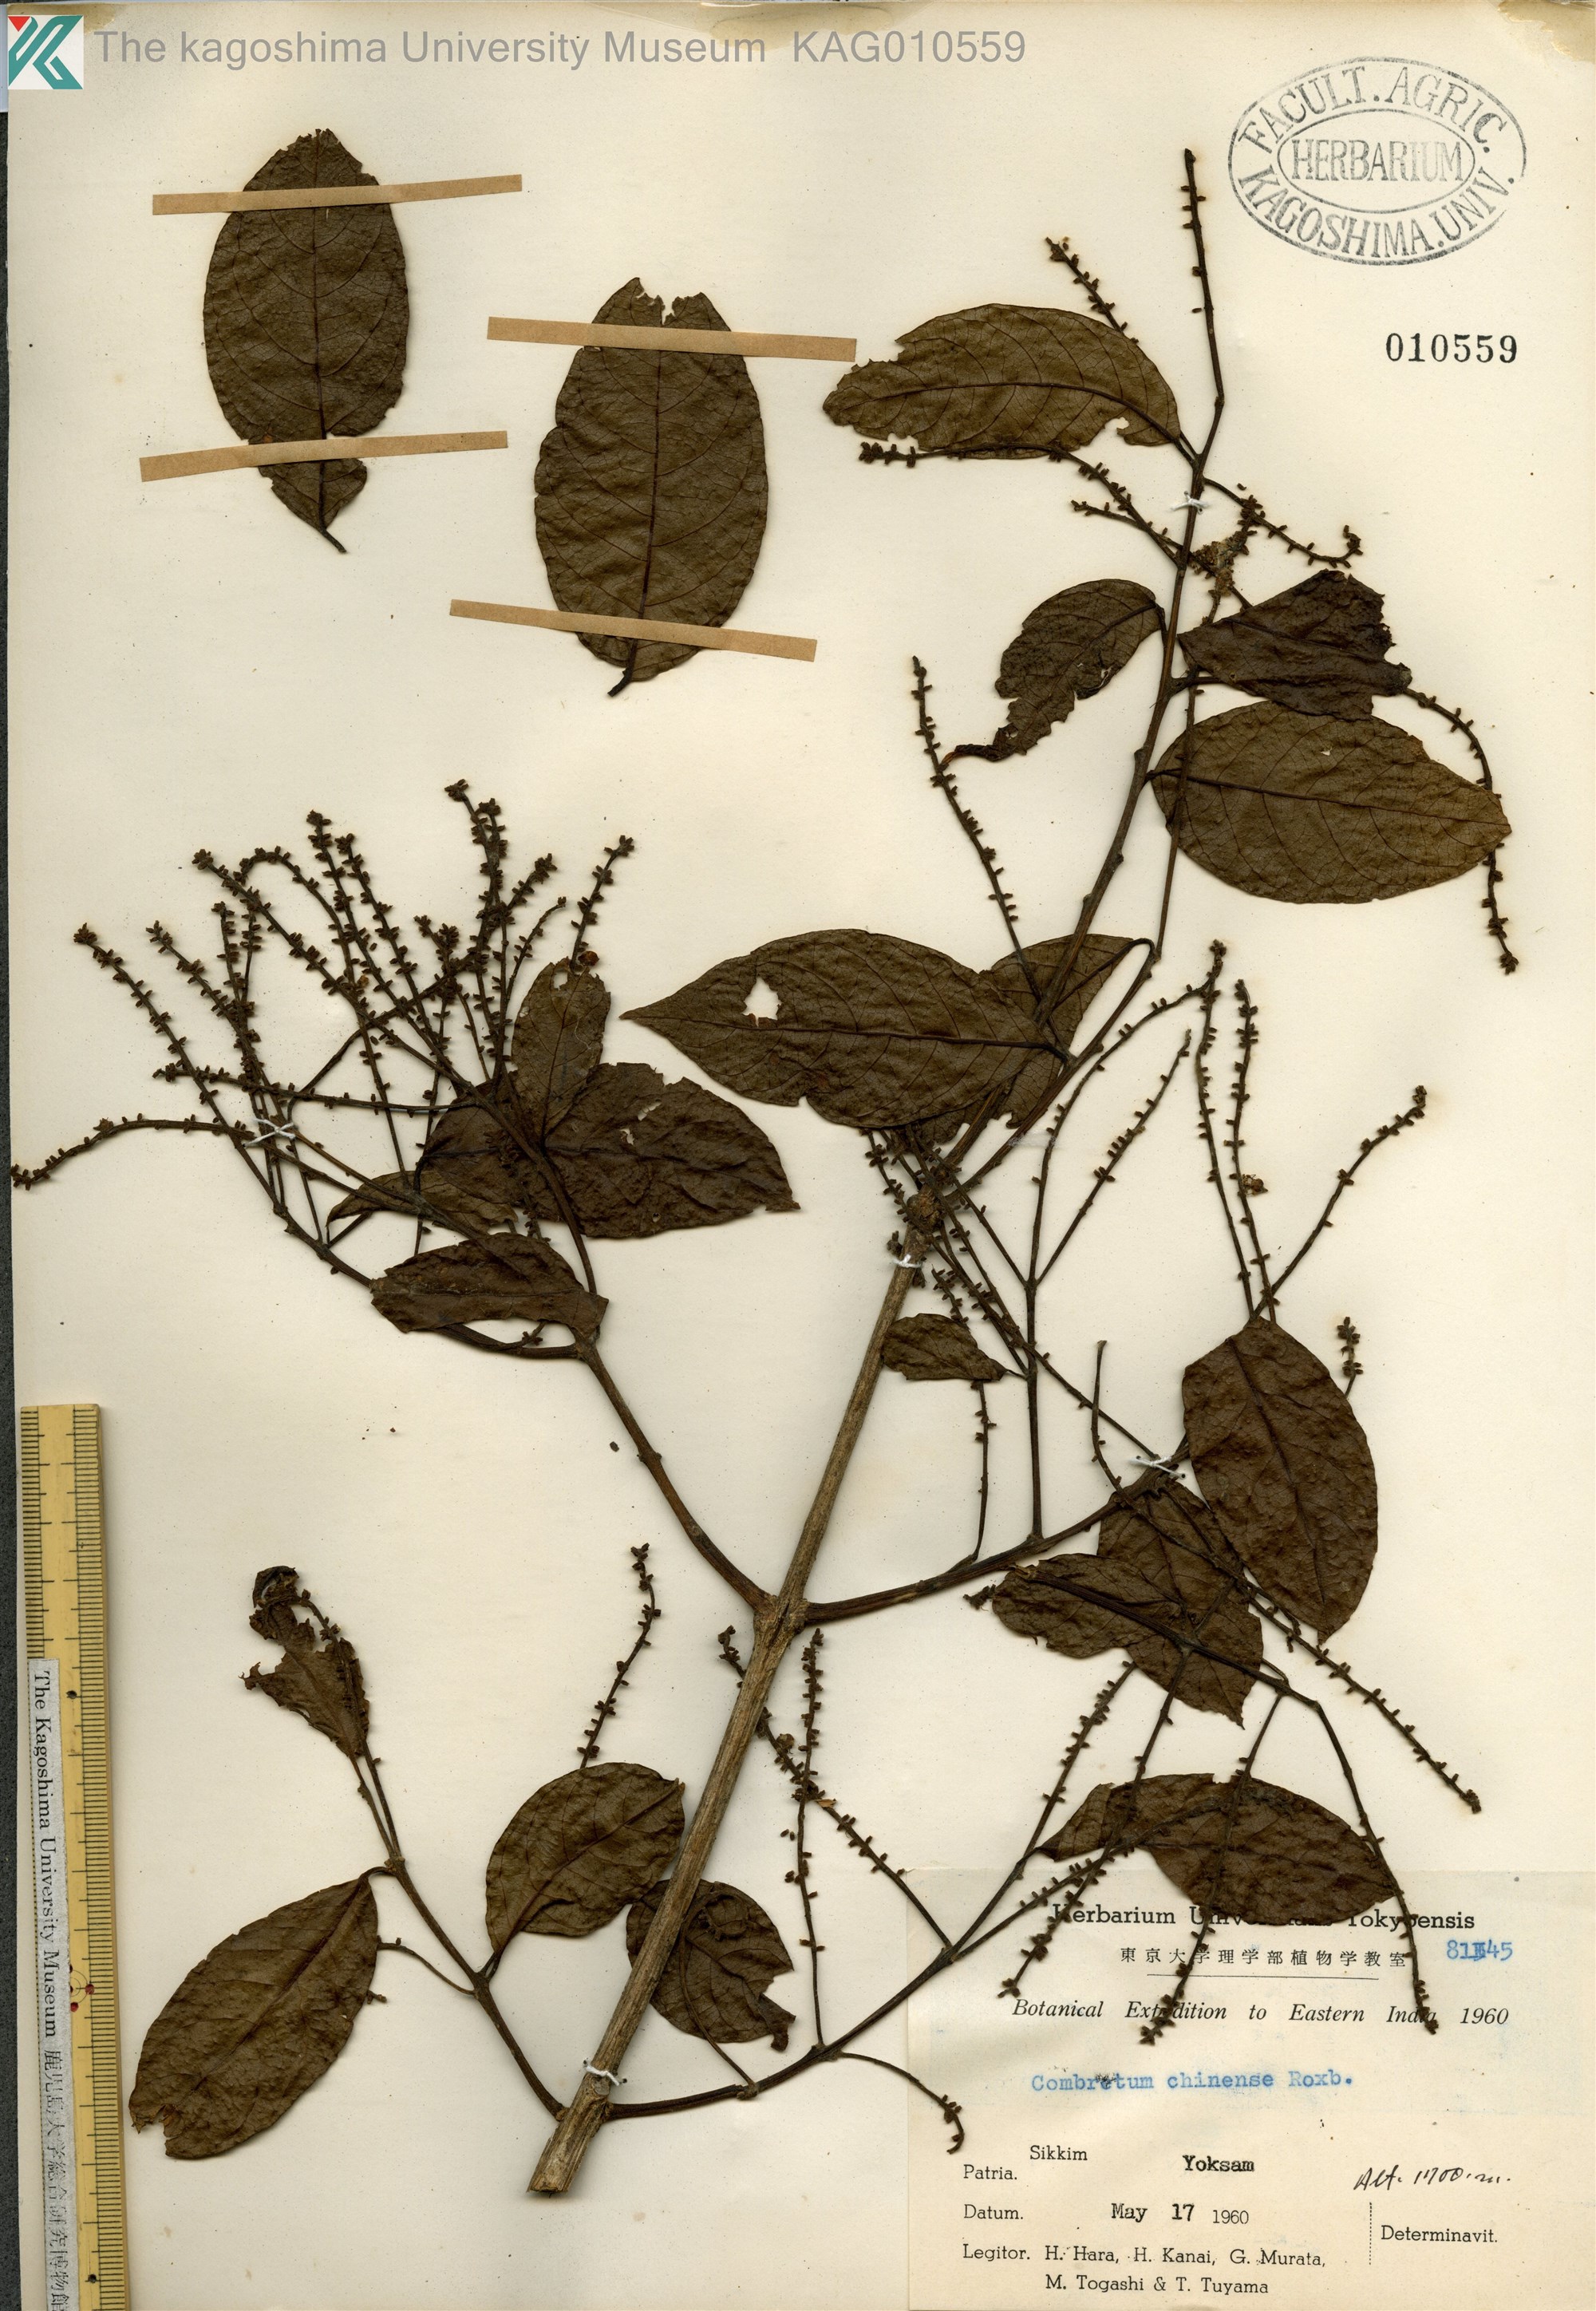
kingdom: Plantae
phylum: Tracheophyta
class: Magnoliopsida
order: Myrtales
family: Combretaceae
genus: Combretum
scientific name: Combretum chinense
